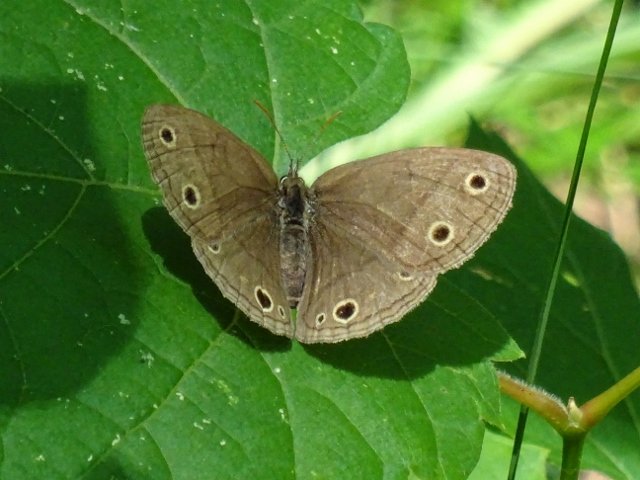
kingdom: Animalia
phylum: Arthropoda
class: Insecta
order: Lepidoptera
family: Nymphalidae
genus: Euptychia
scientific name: Euptychia cymela
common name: Little Wood Satyr
